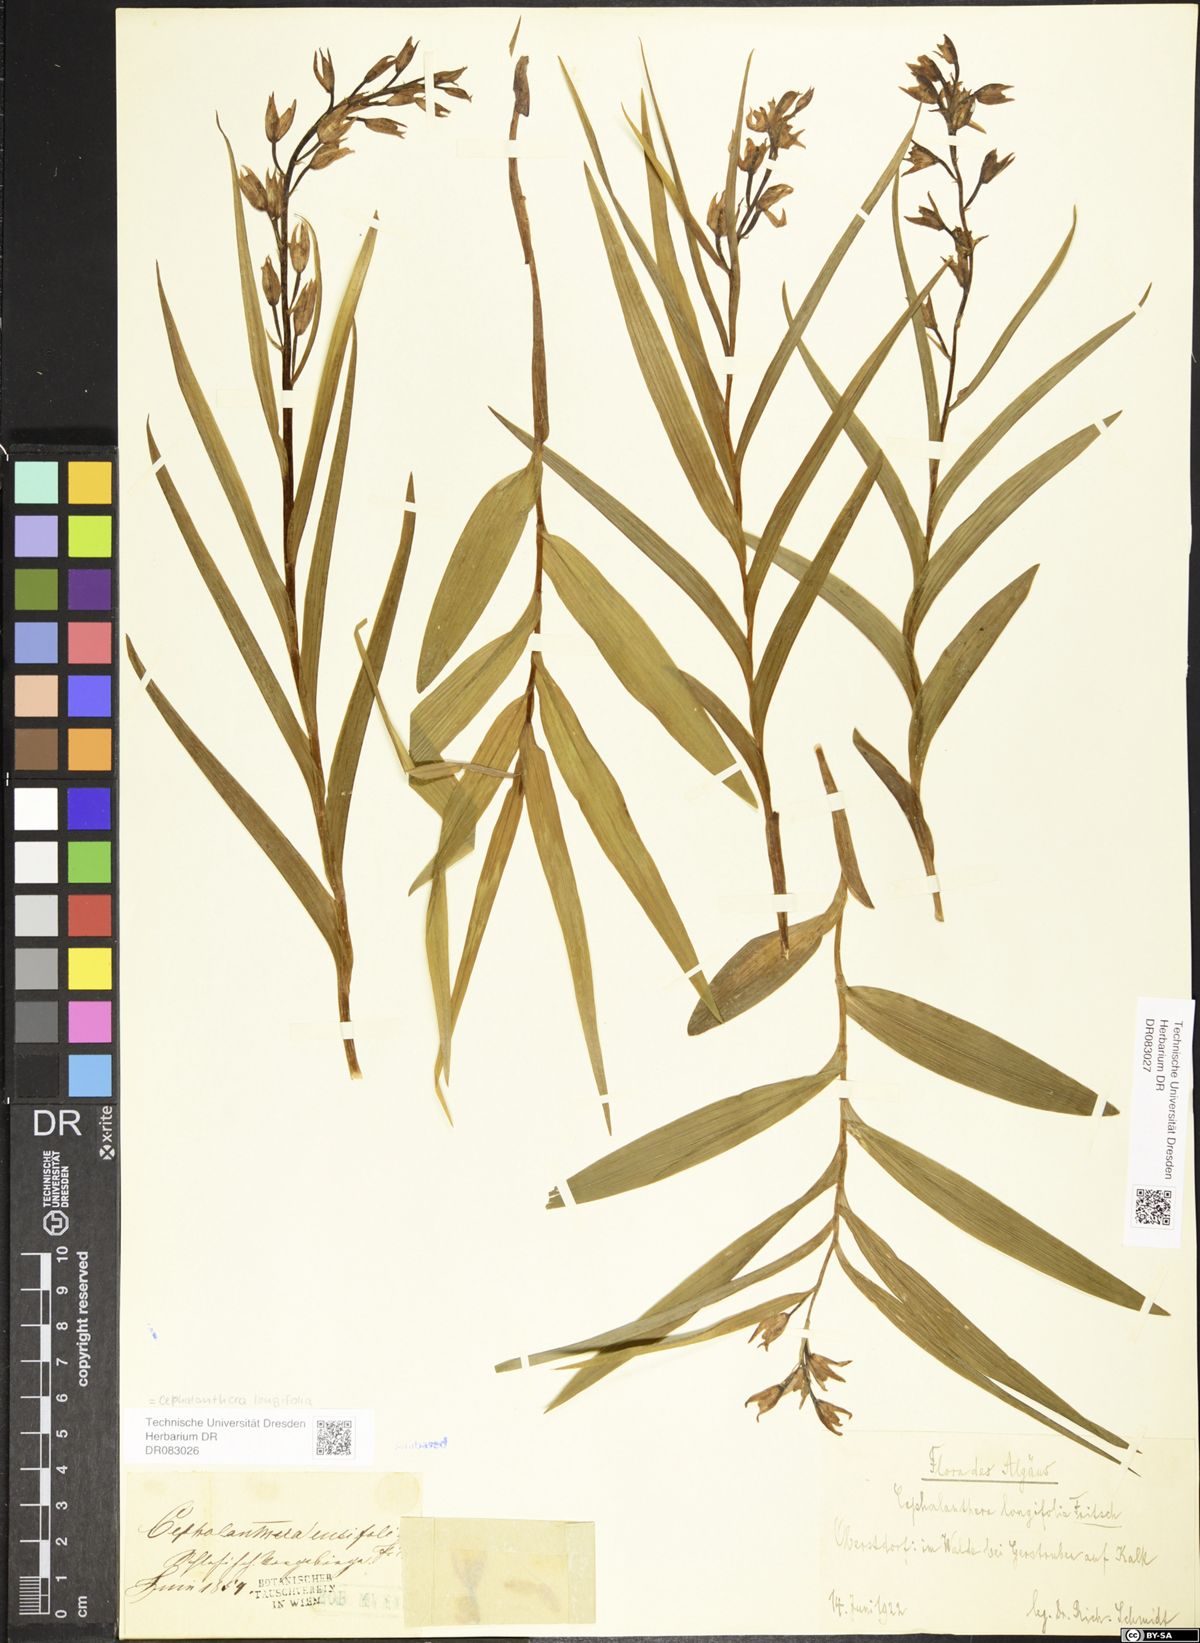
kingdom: Plantae
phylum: Tracheophyta
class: Liliopsida
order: Asparagales
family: Orchidaceae
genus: Cephalanthera
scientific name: Cephalanthera longifolia
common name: Narrow-leaved helleborine
